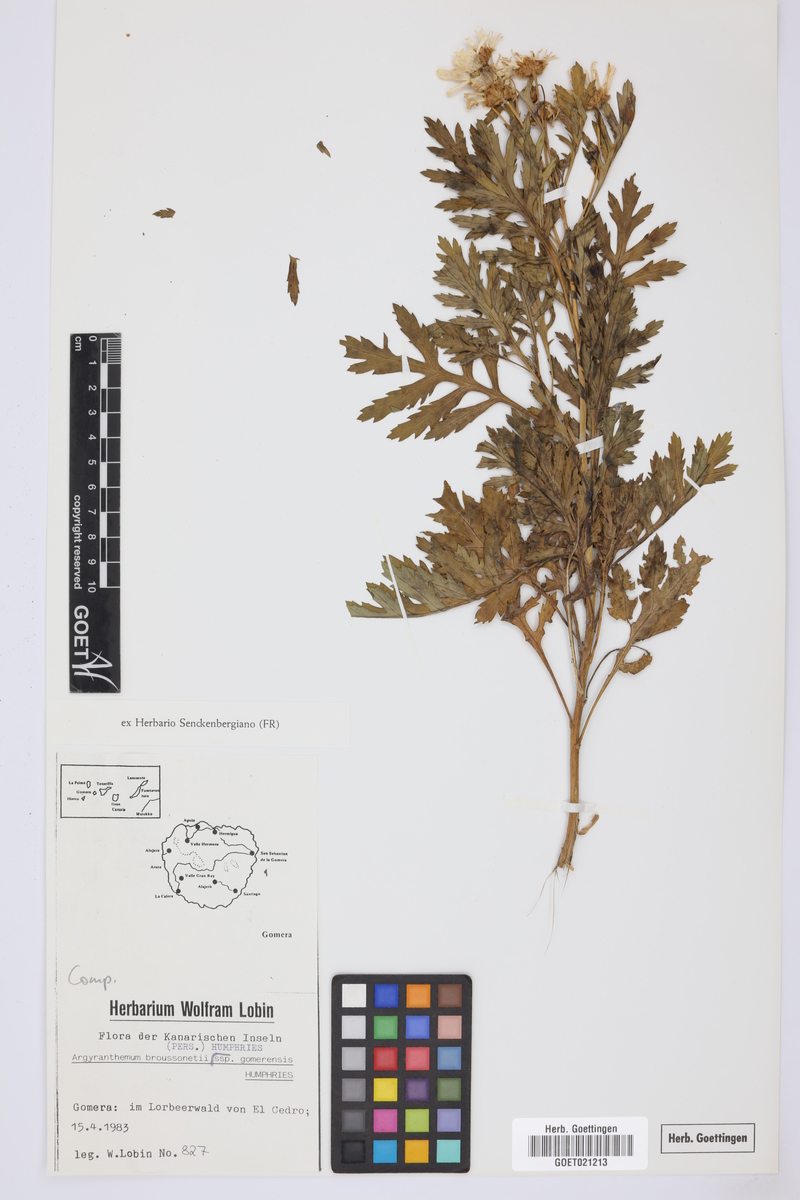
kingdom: Plantae
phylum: Tracheophyta
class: Magnoliopsida
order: Asterales
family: Asteraceae
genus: Argyranthemum
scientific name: Argyranthemum callichrysum
